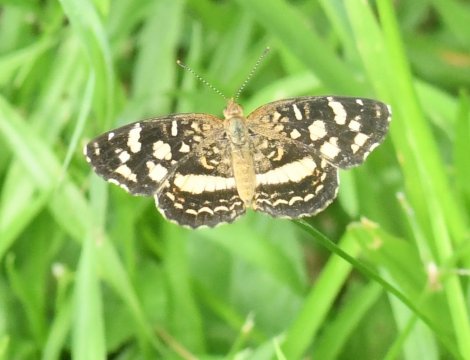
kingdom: Animalia
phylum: Arthropoda
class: Insecta
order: Lepidoptera
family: Nymphalidae
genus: Anthanassa
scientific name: Anthanassa tulcis
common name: Pale-banded Crescent
